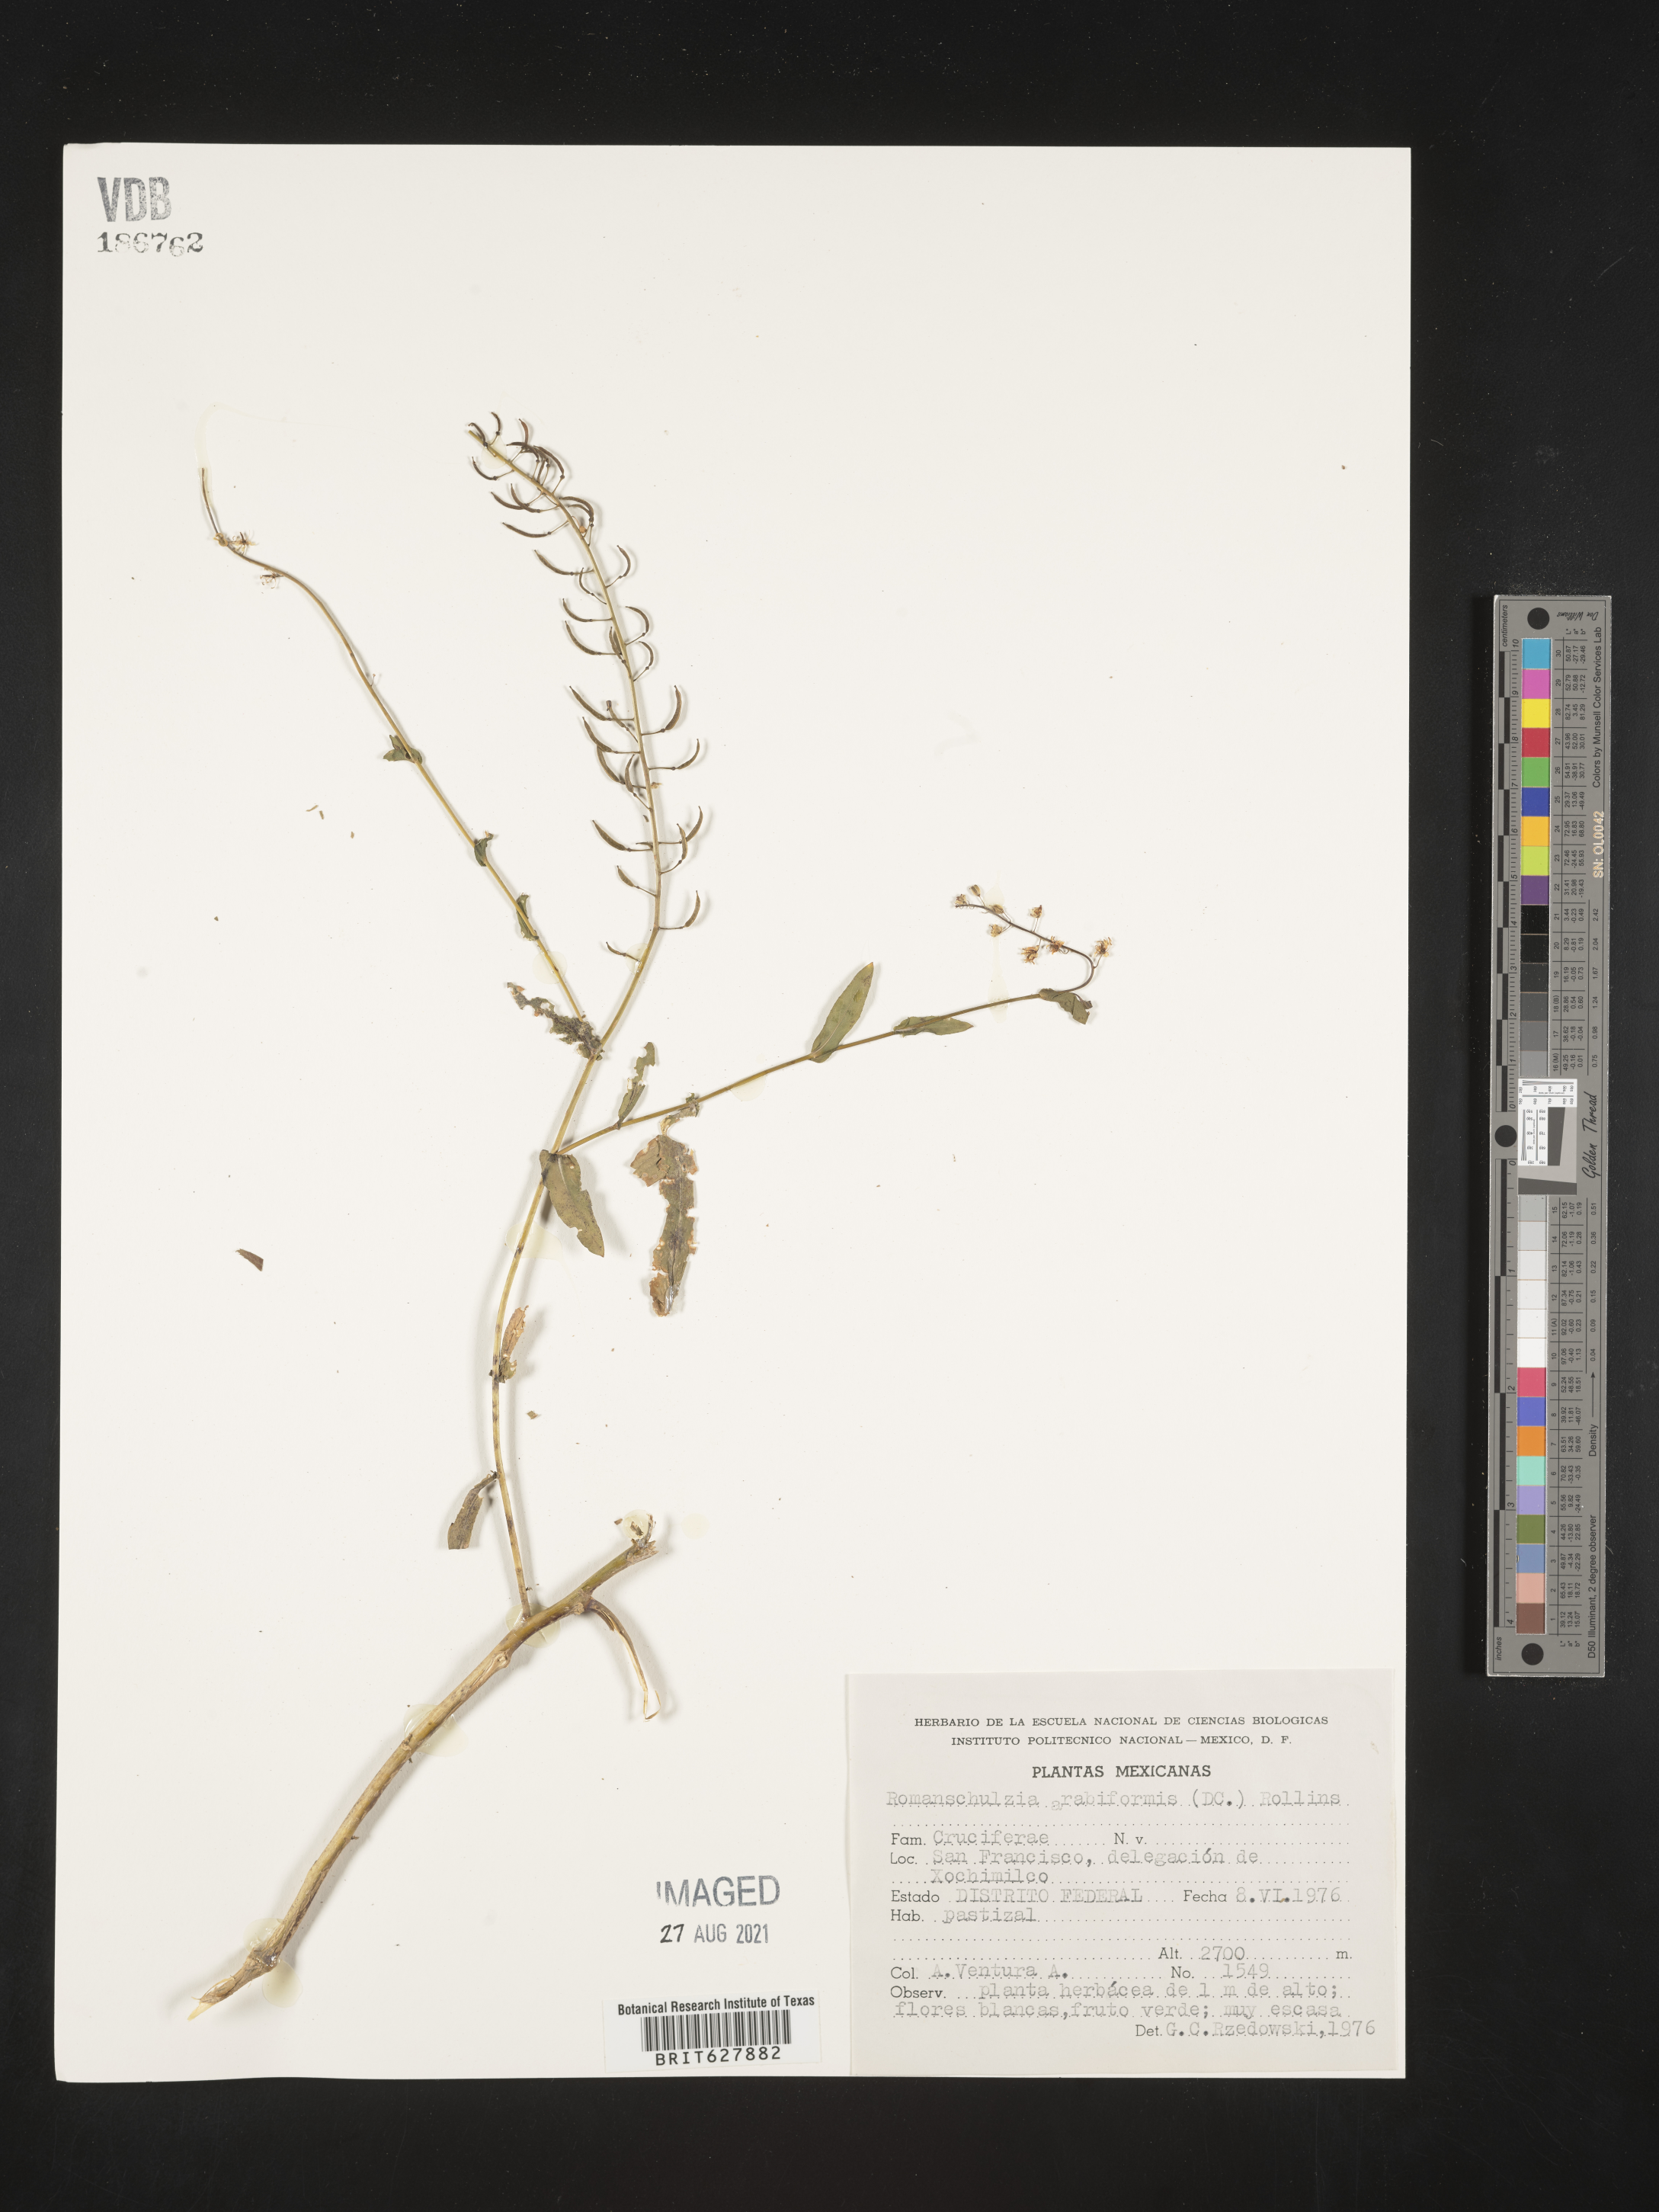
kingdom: Plantae
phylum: Tracheophyta
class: Magnoliopsida
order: Brassicales
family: Brassicaceae
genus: Romanschulzia
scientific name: Romanschulzia
